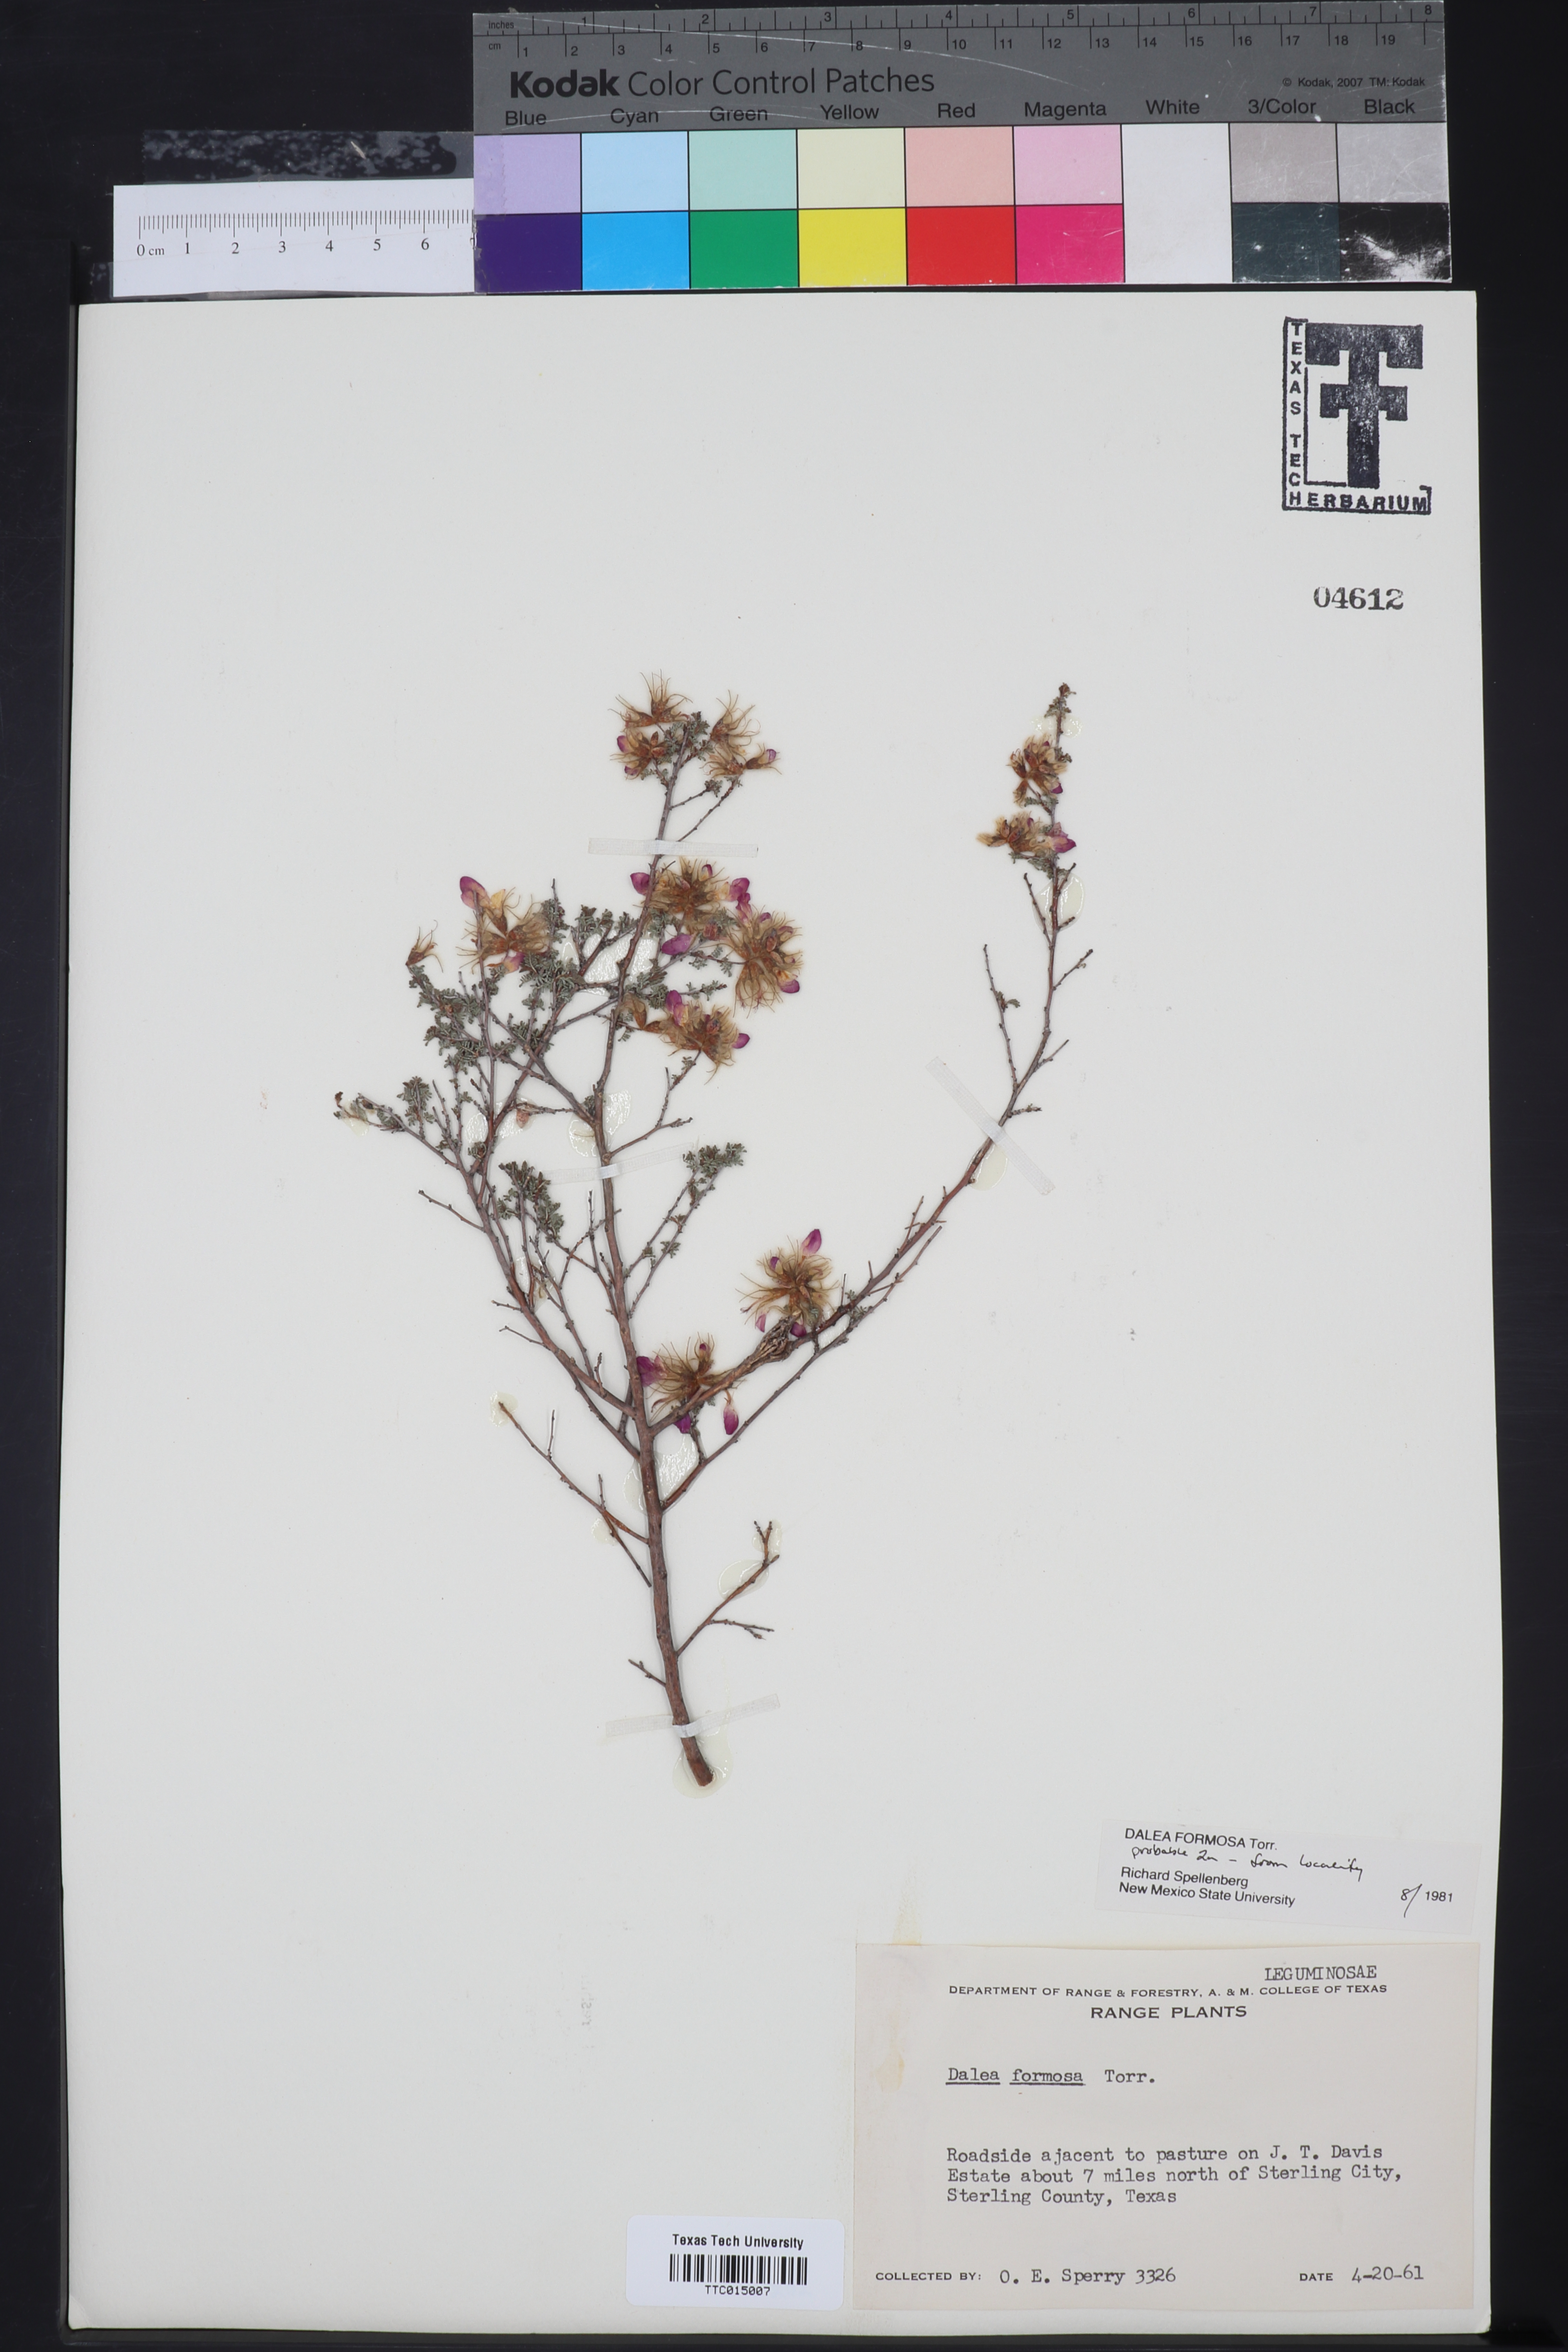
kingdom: Plantae
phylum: Tracheophyta
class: Magnoliopsida
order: Fabales
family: Fabaceae
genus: Dalea
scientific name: Dalea formosa
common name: Feather-plume dalea
